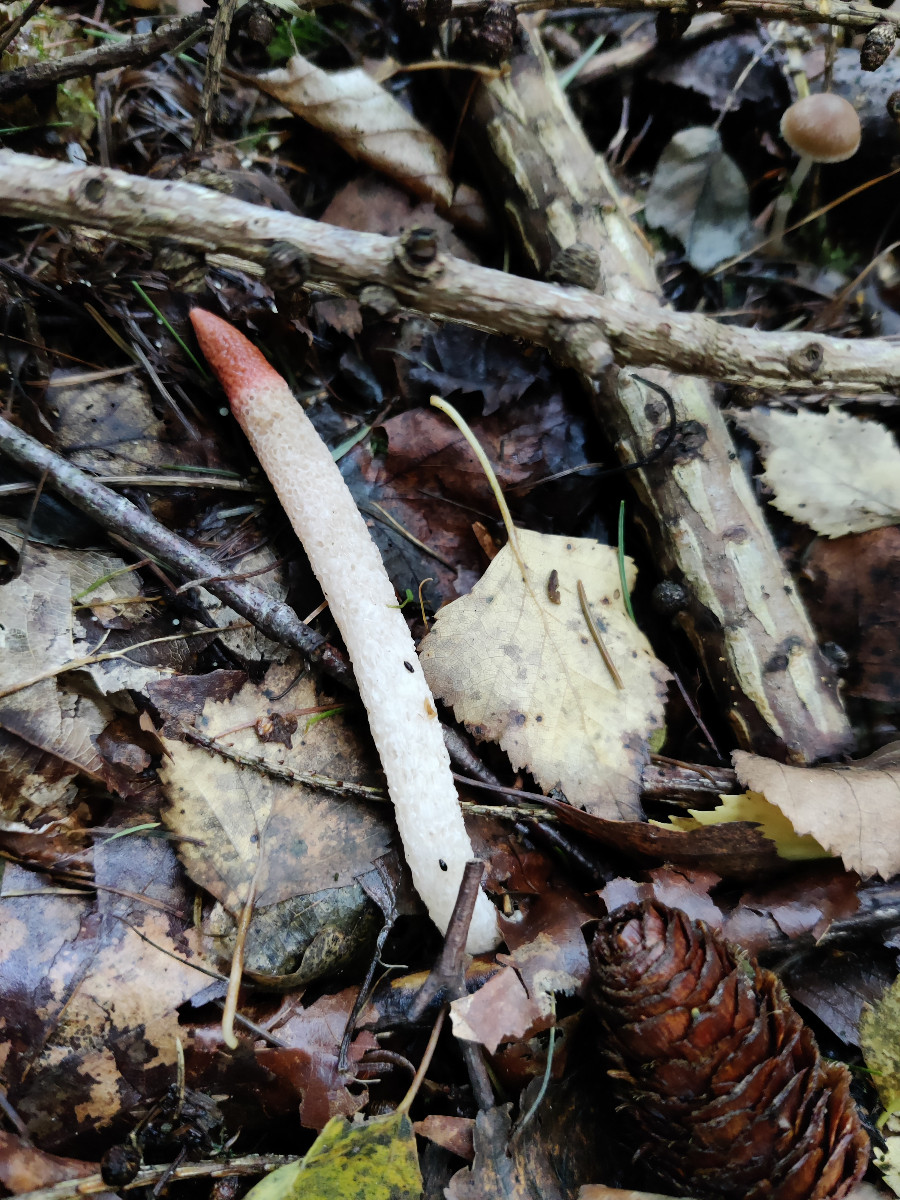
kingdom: Fungi
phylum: Basidiomycota
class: Agaricomycetes
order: Phallales
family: Phallaceae
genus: Mutinus
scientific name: Mutinus caninus
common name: hunde-stinksvamp
